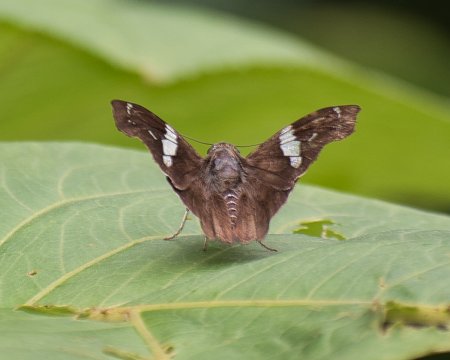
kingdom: Animalia
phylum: Arthropoda
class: Insecta
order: Lepidoptera
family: Hesperiidae
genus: Spathilepia
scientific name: Spathilepia clonius
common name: Falcate Skipper
